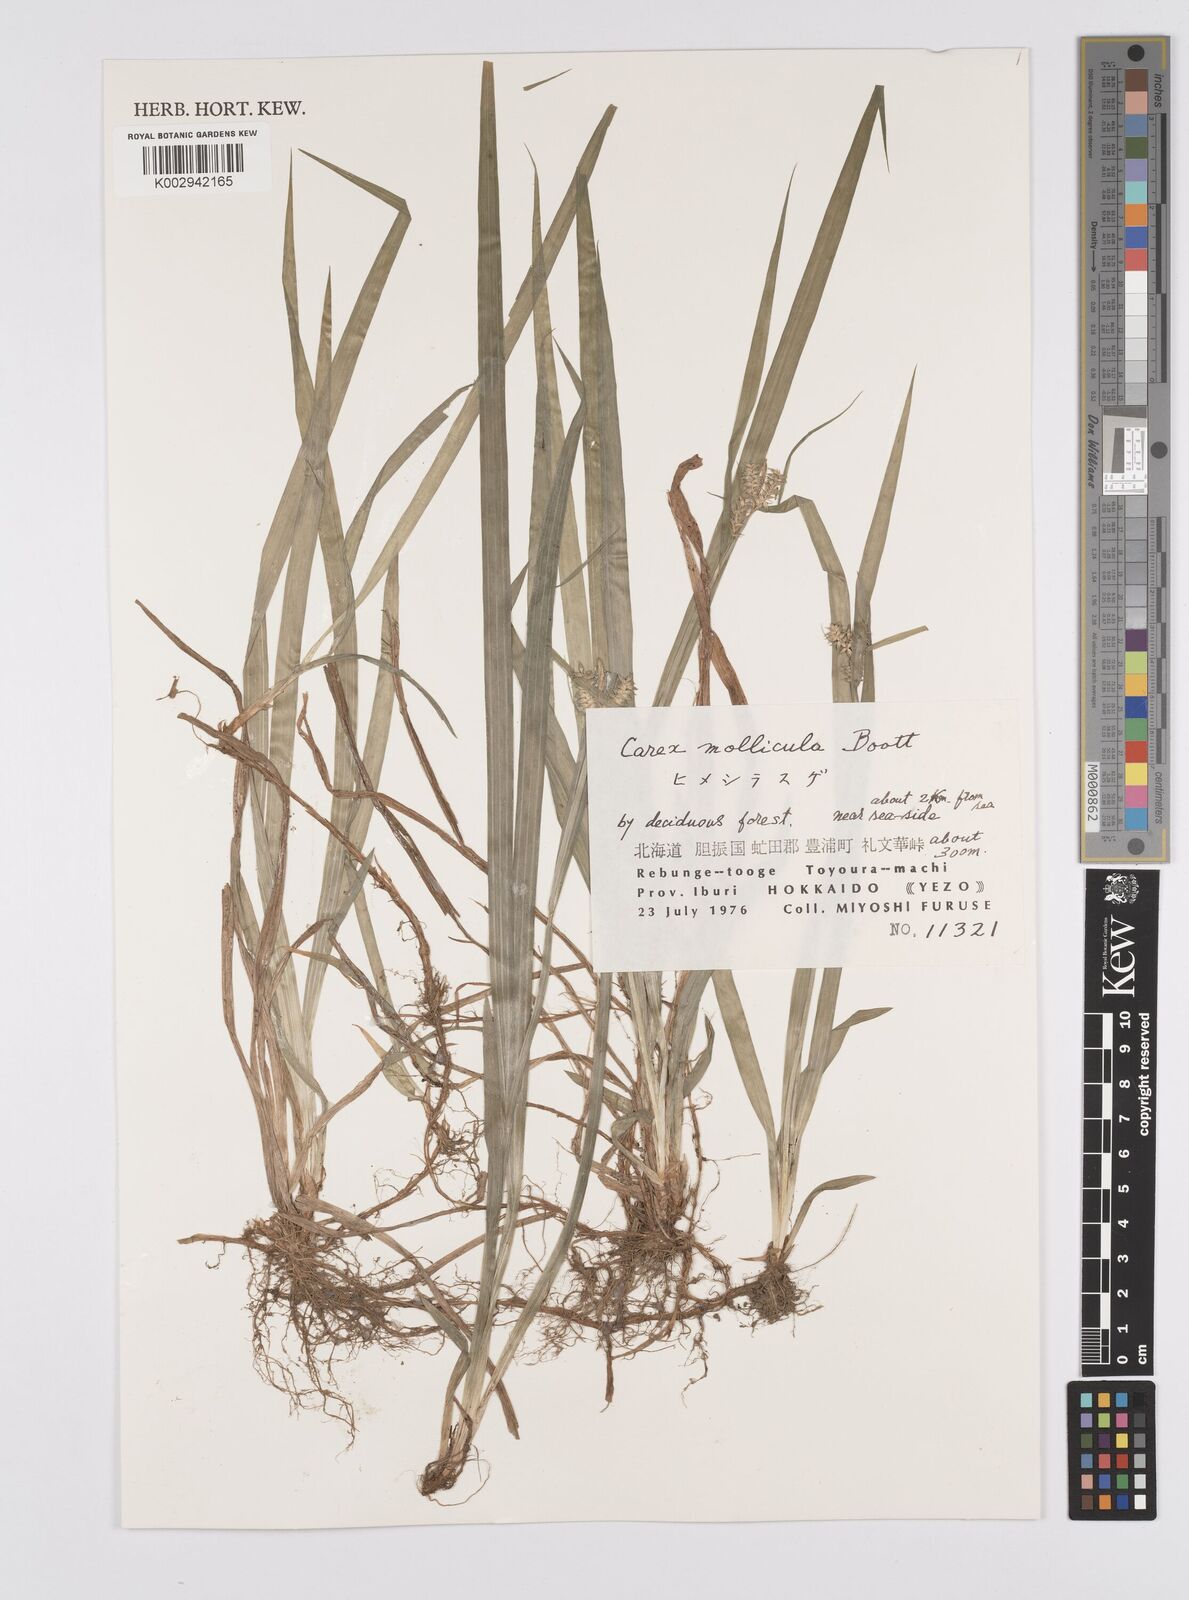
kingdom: Plantae
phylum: Tracheophyta
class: Liliopsida
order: Poales
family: Cyperaceae
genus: Carex
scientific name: Carex mollicula
